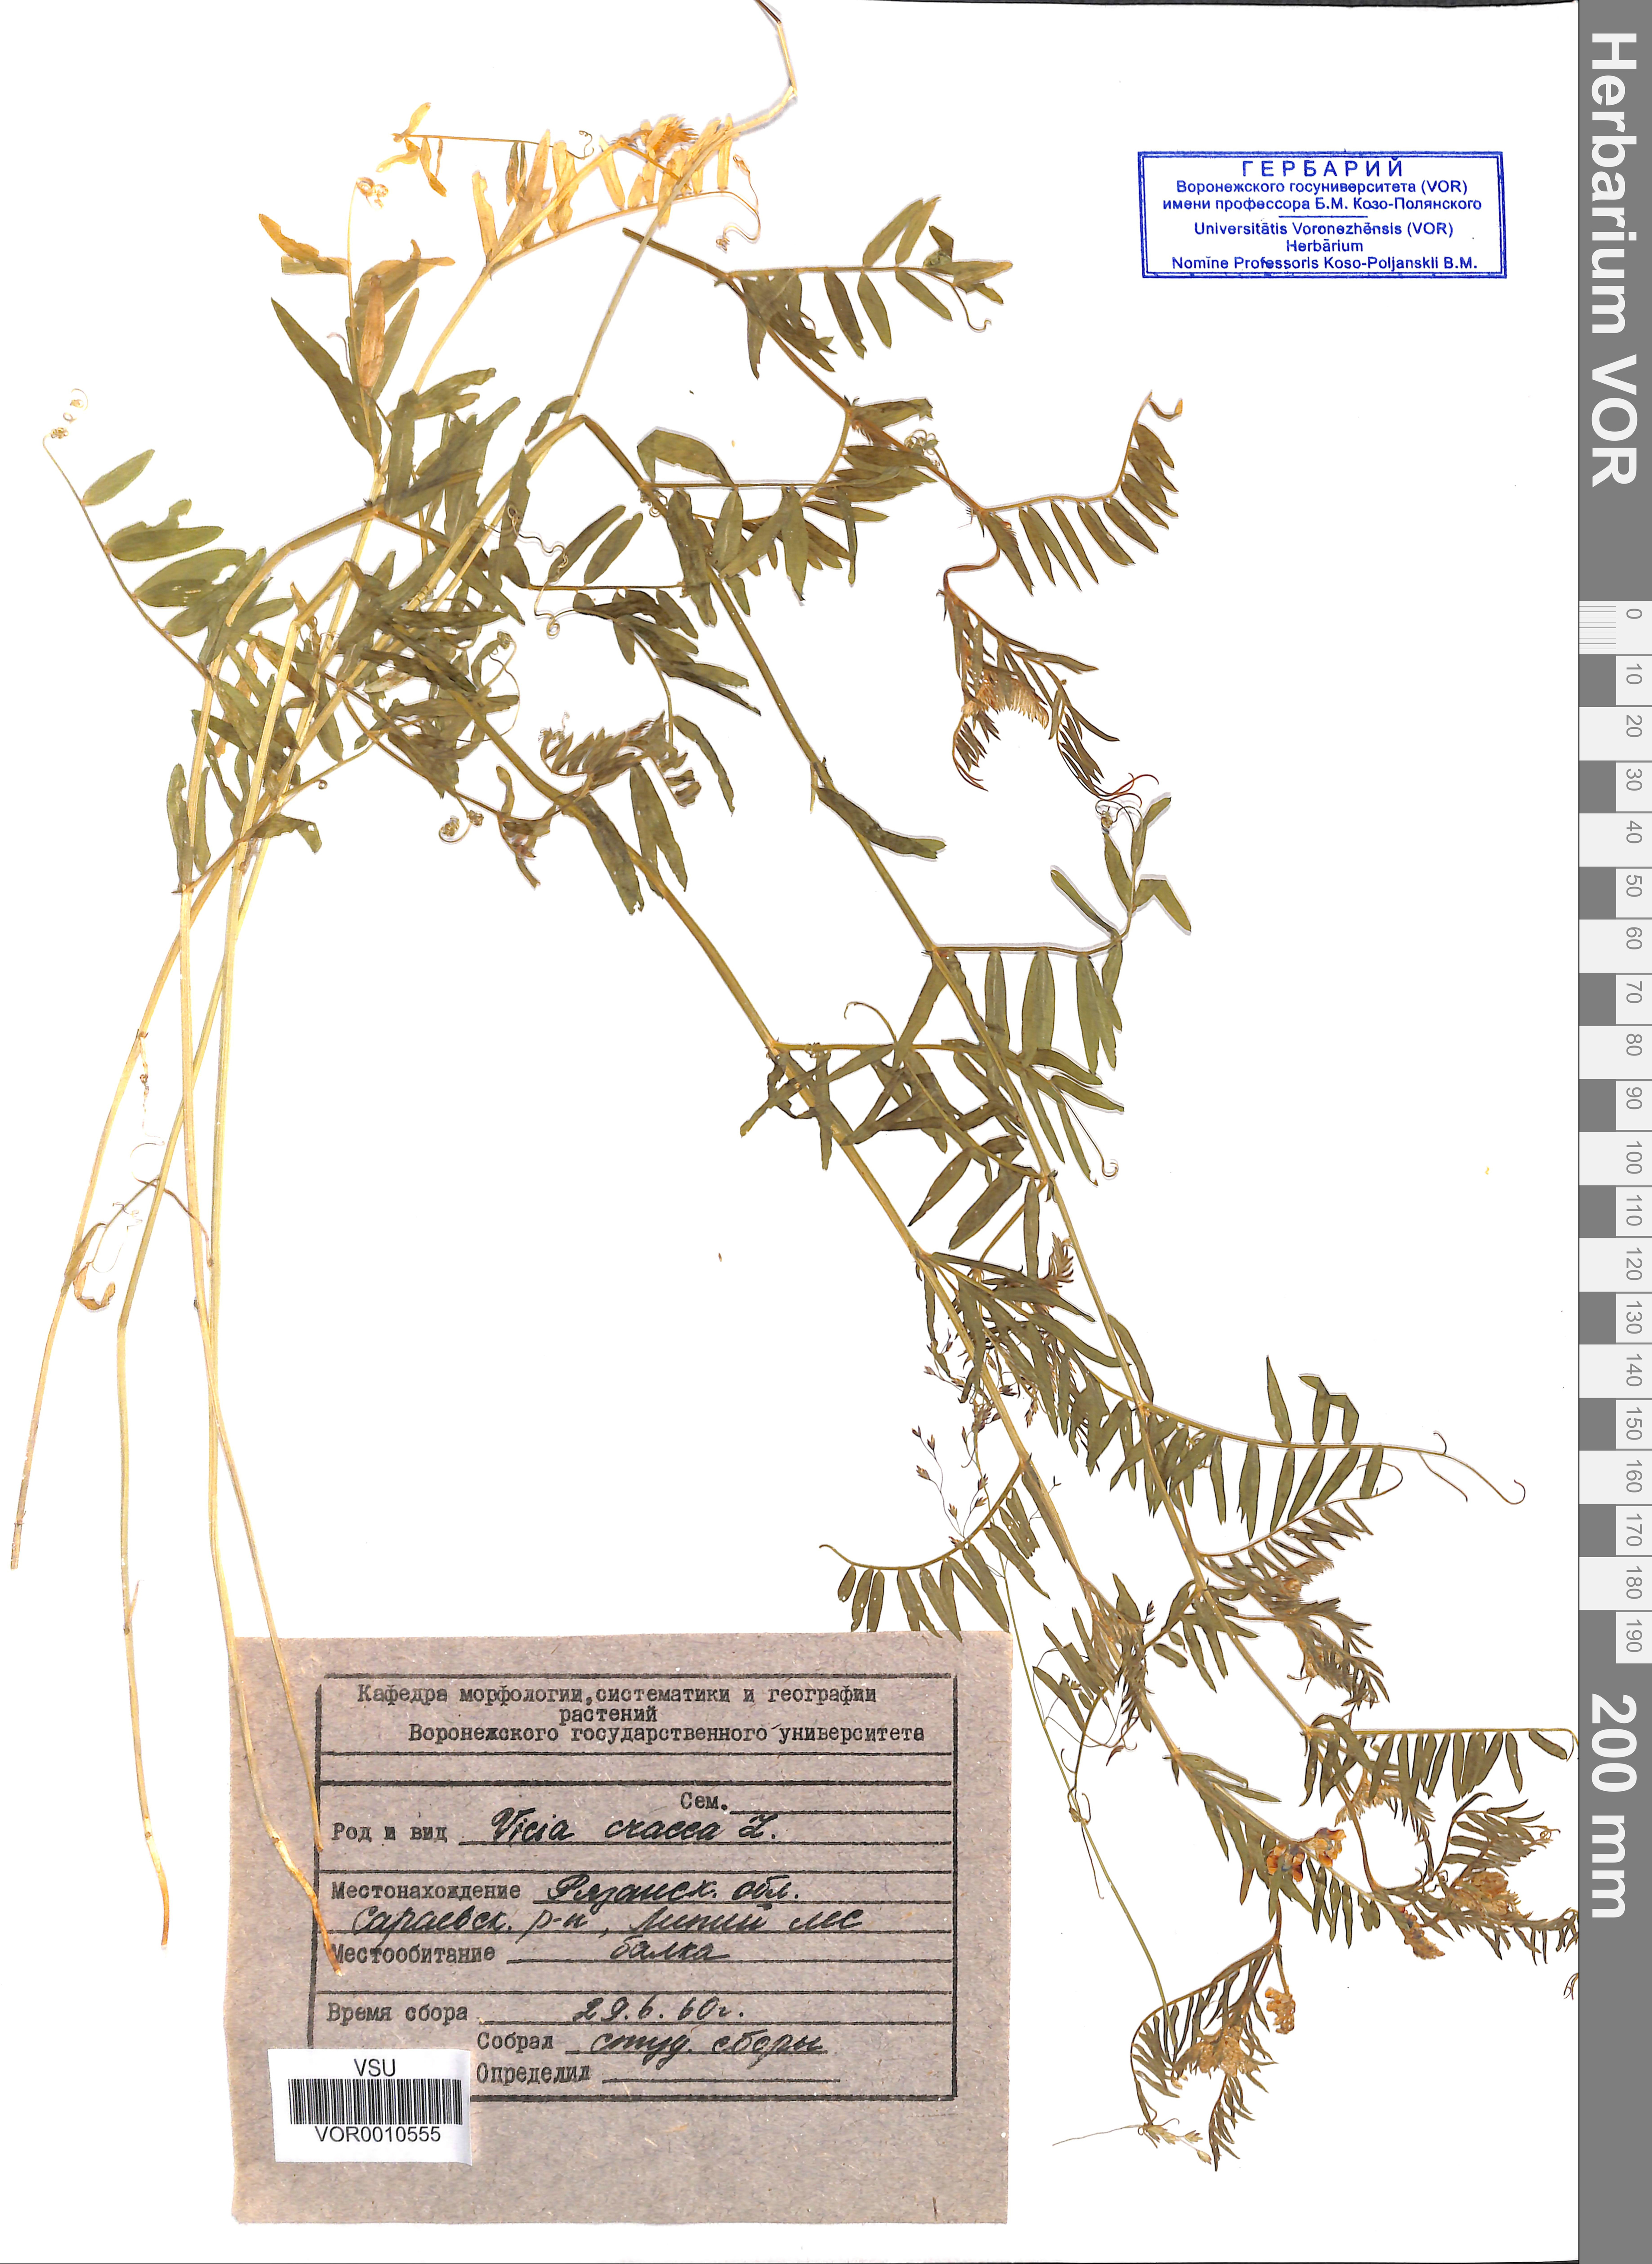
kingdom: Plantae
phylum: Tracheophyta
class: Magnoliopsida
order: Fabales
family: Fabaceae
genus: Vicia
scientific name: Vicia cracca
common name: Bird vetch
